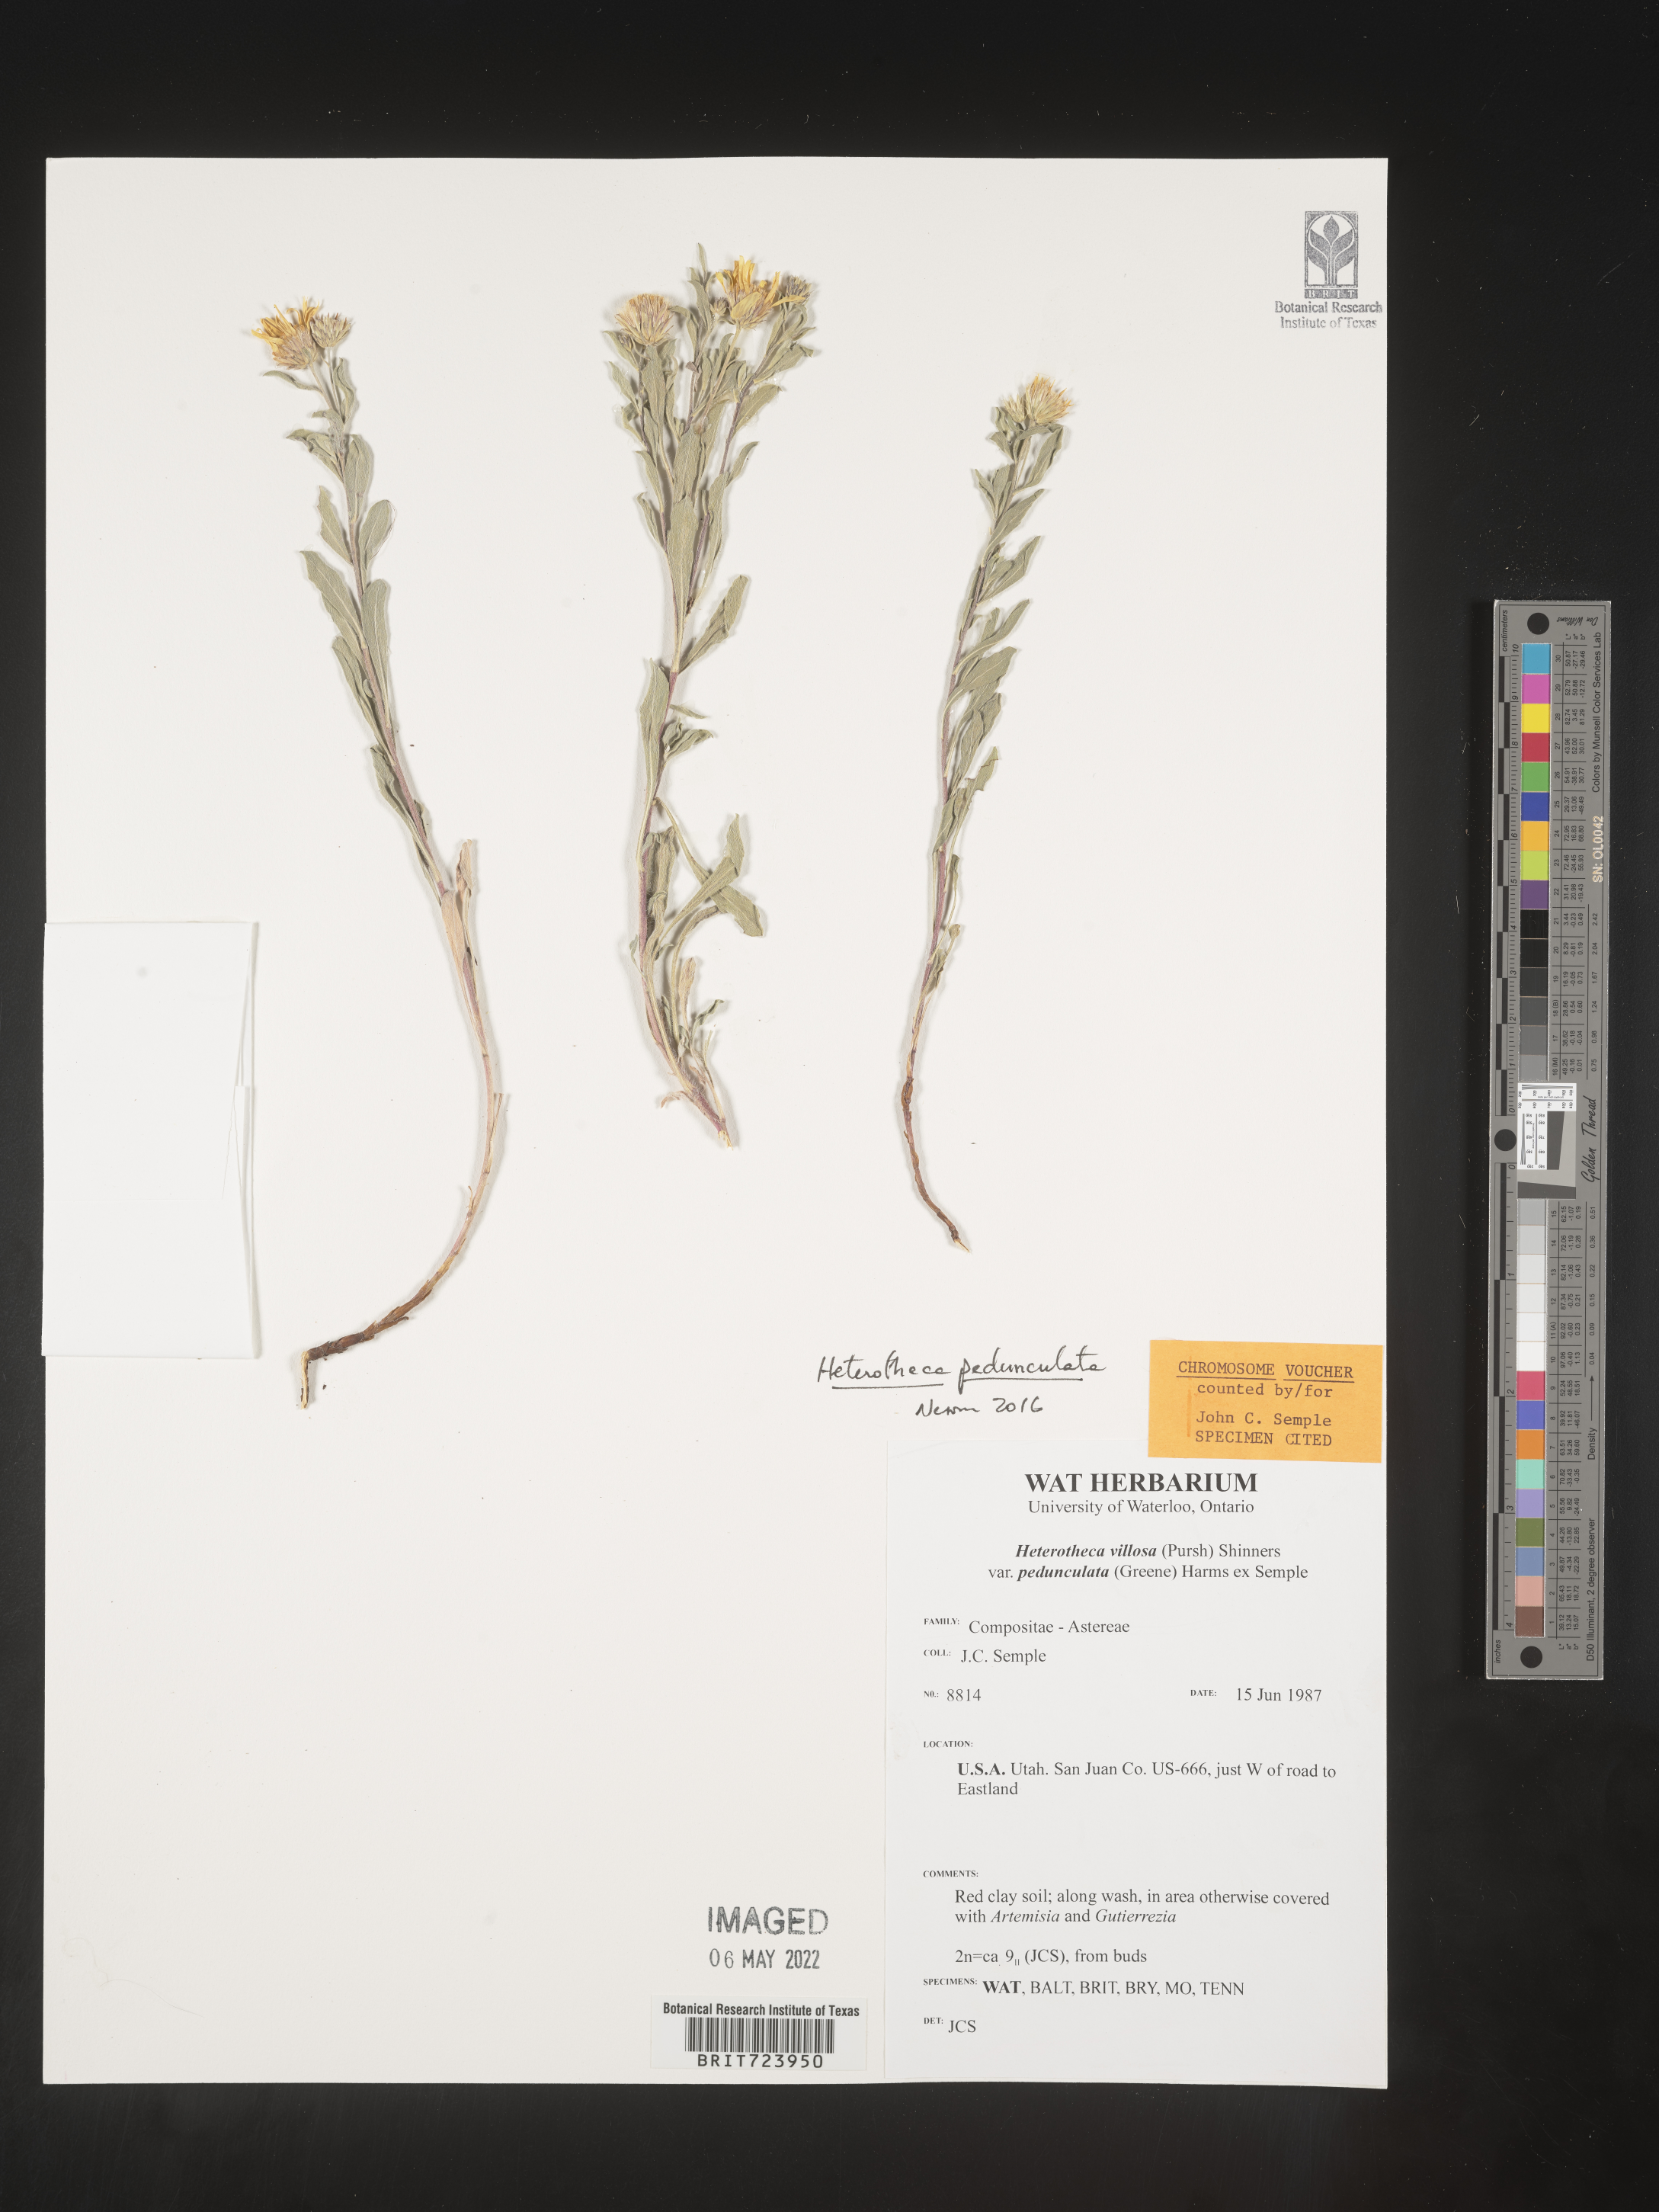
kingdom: Plantae
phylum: Tracheophyta
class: Magnoliopsida
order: Asterales
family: Asteraceae
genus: Heterotheca
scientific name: Heterotheca pedunculata
